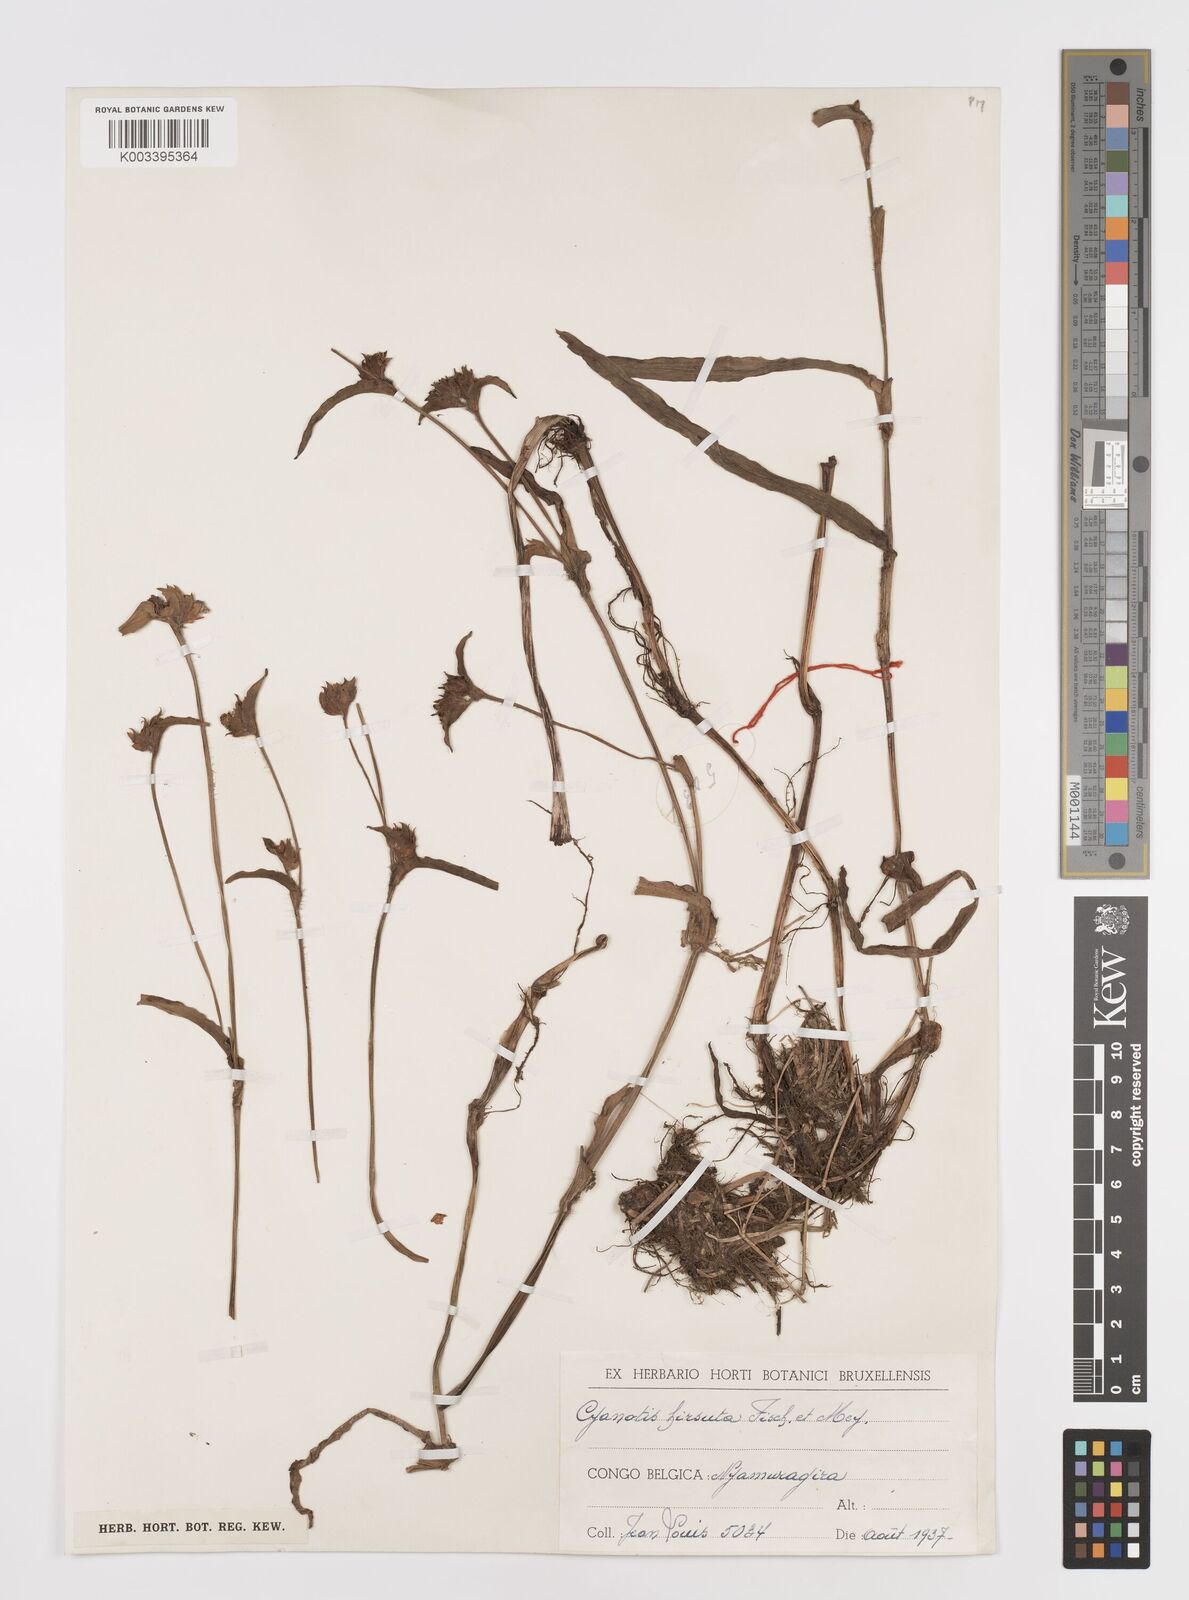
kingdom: Plantae
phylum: Tracheophyta
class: Liliopsida
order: Commelinales
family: Commelinaceae
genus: Cyanotis
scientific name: Cyanotis vaga
